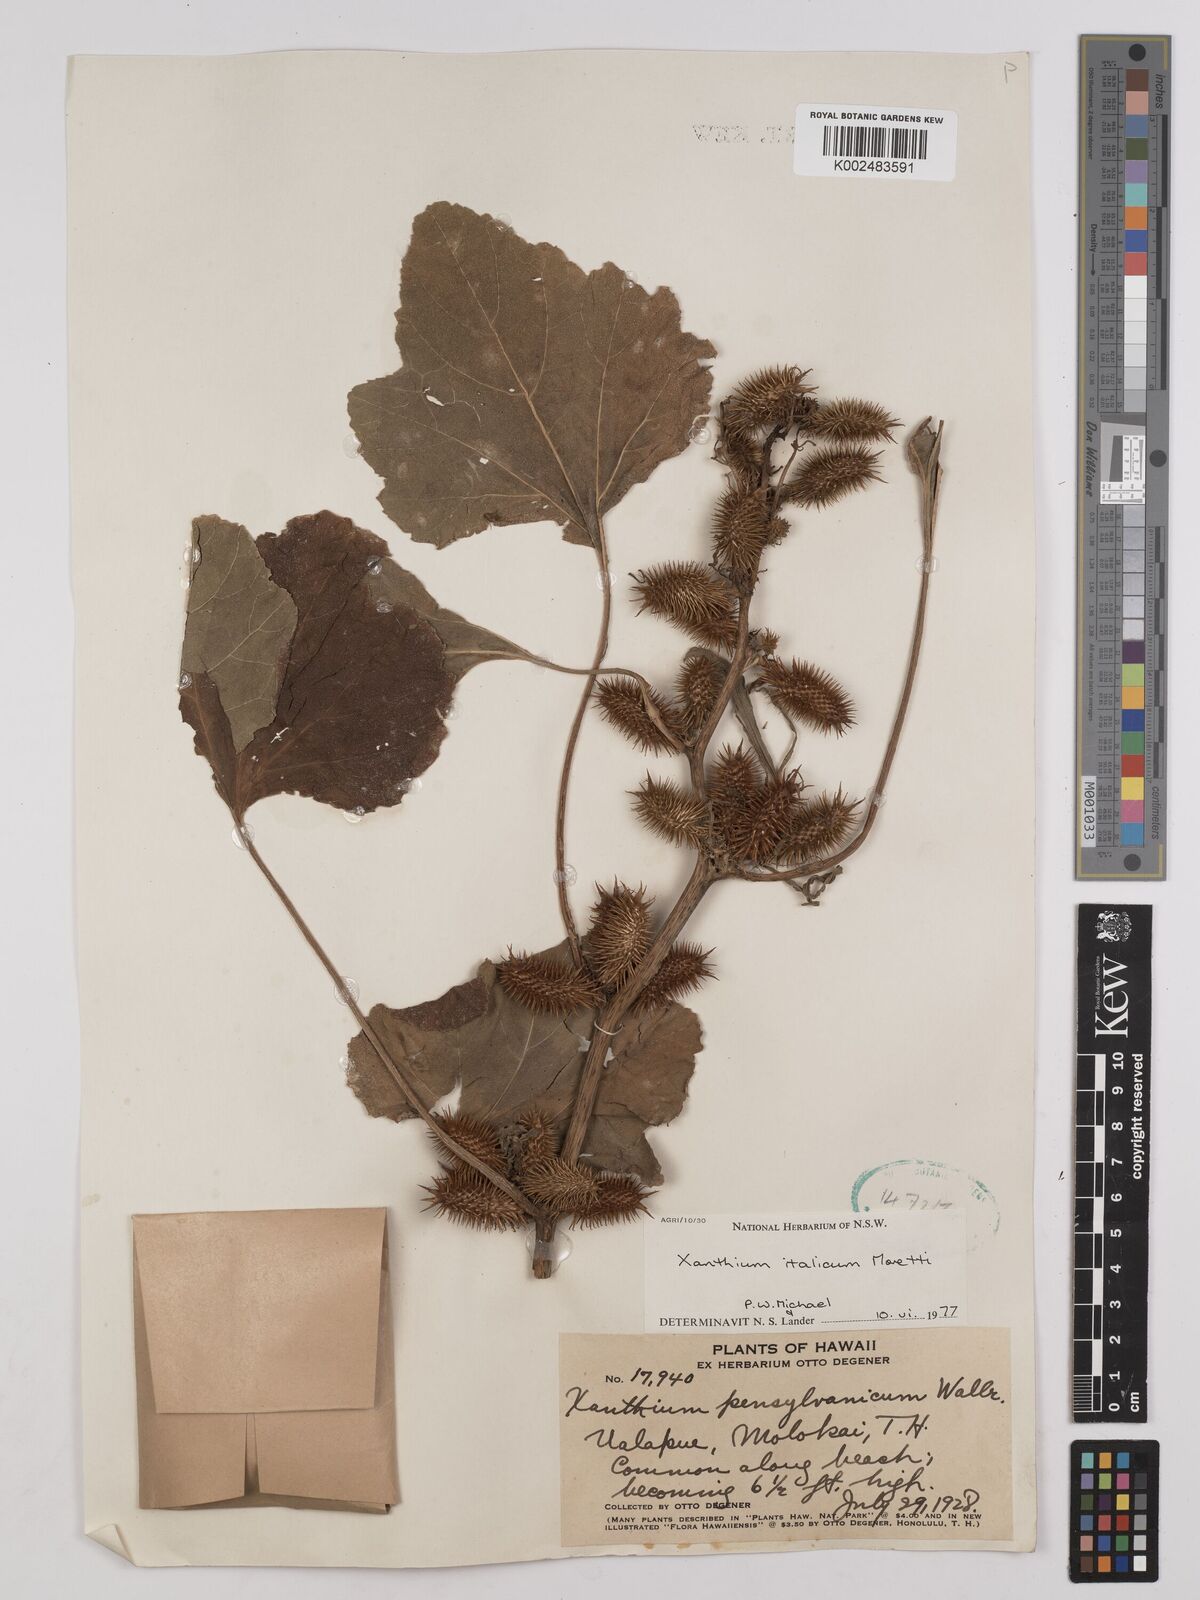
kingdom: Plantae
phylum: Tracheophyta
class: Magnoliopsida
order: Asterales
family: Asteraceae
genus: Xanthium
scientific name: Xanthium orientale
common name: Californian burr
